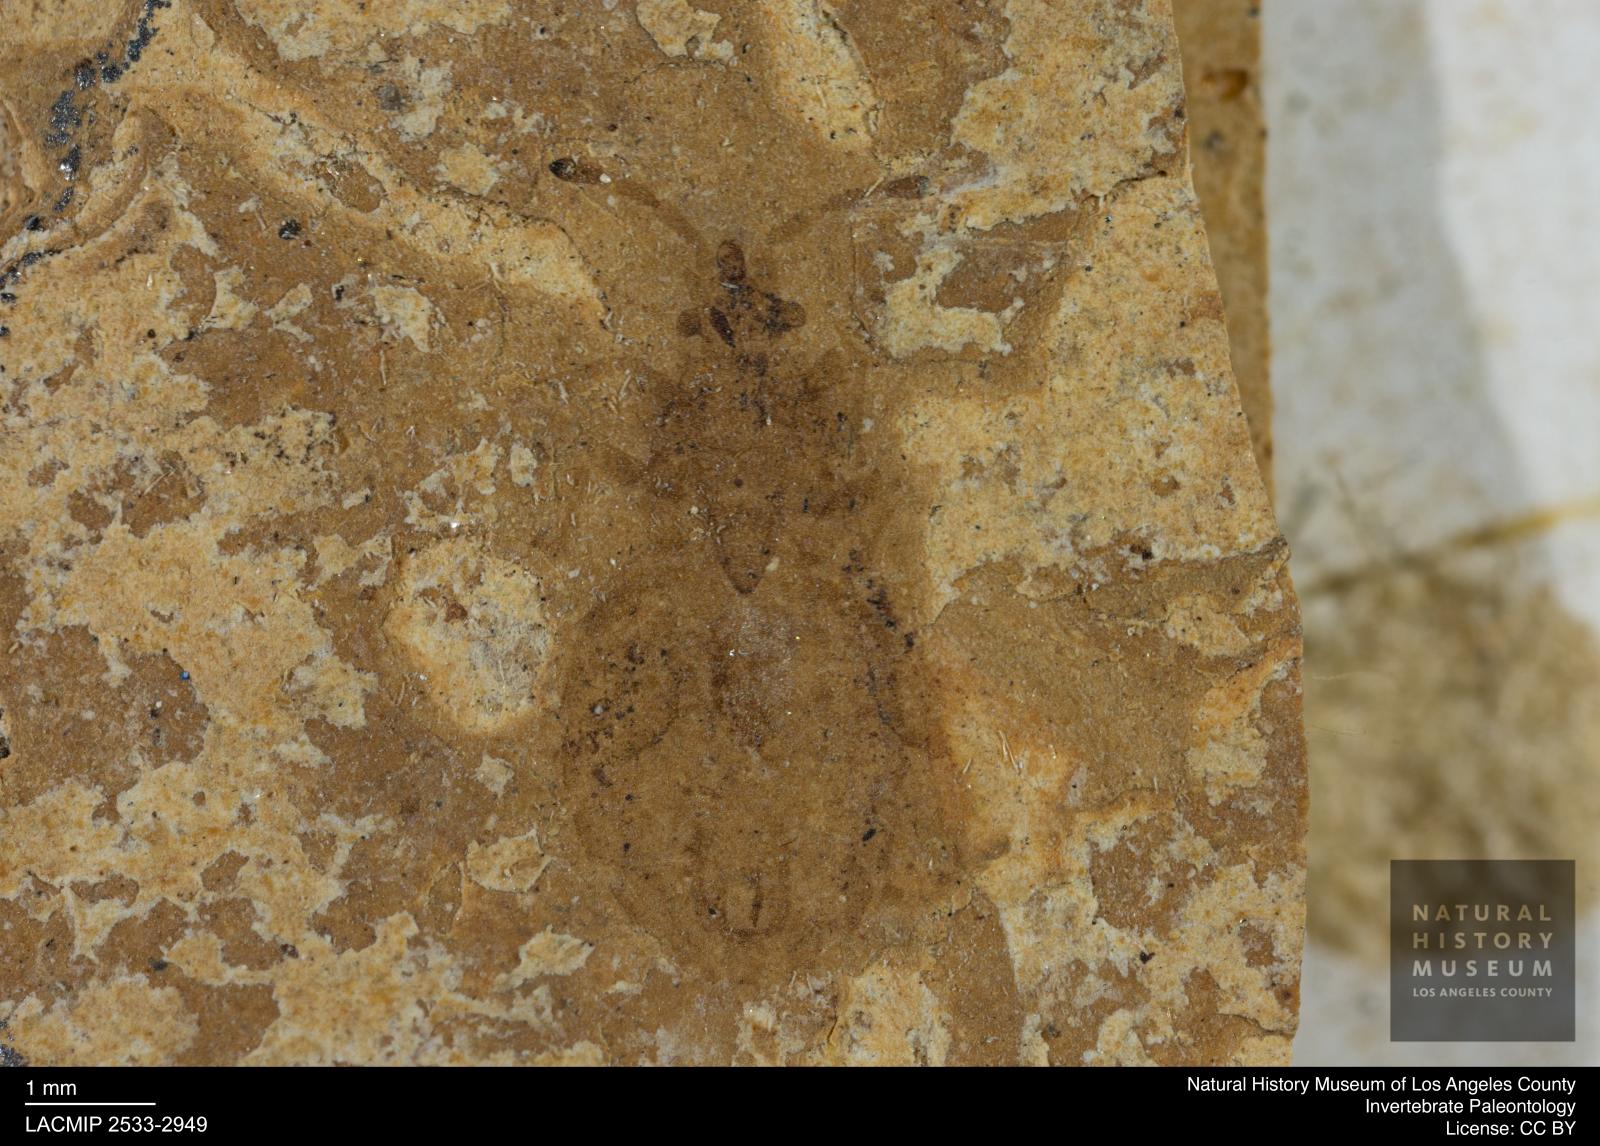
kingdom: Animalia
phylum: Arthropoda
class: Insecta
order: Hemiptera
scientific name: Hemiptera
